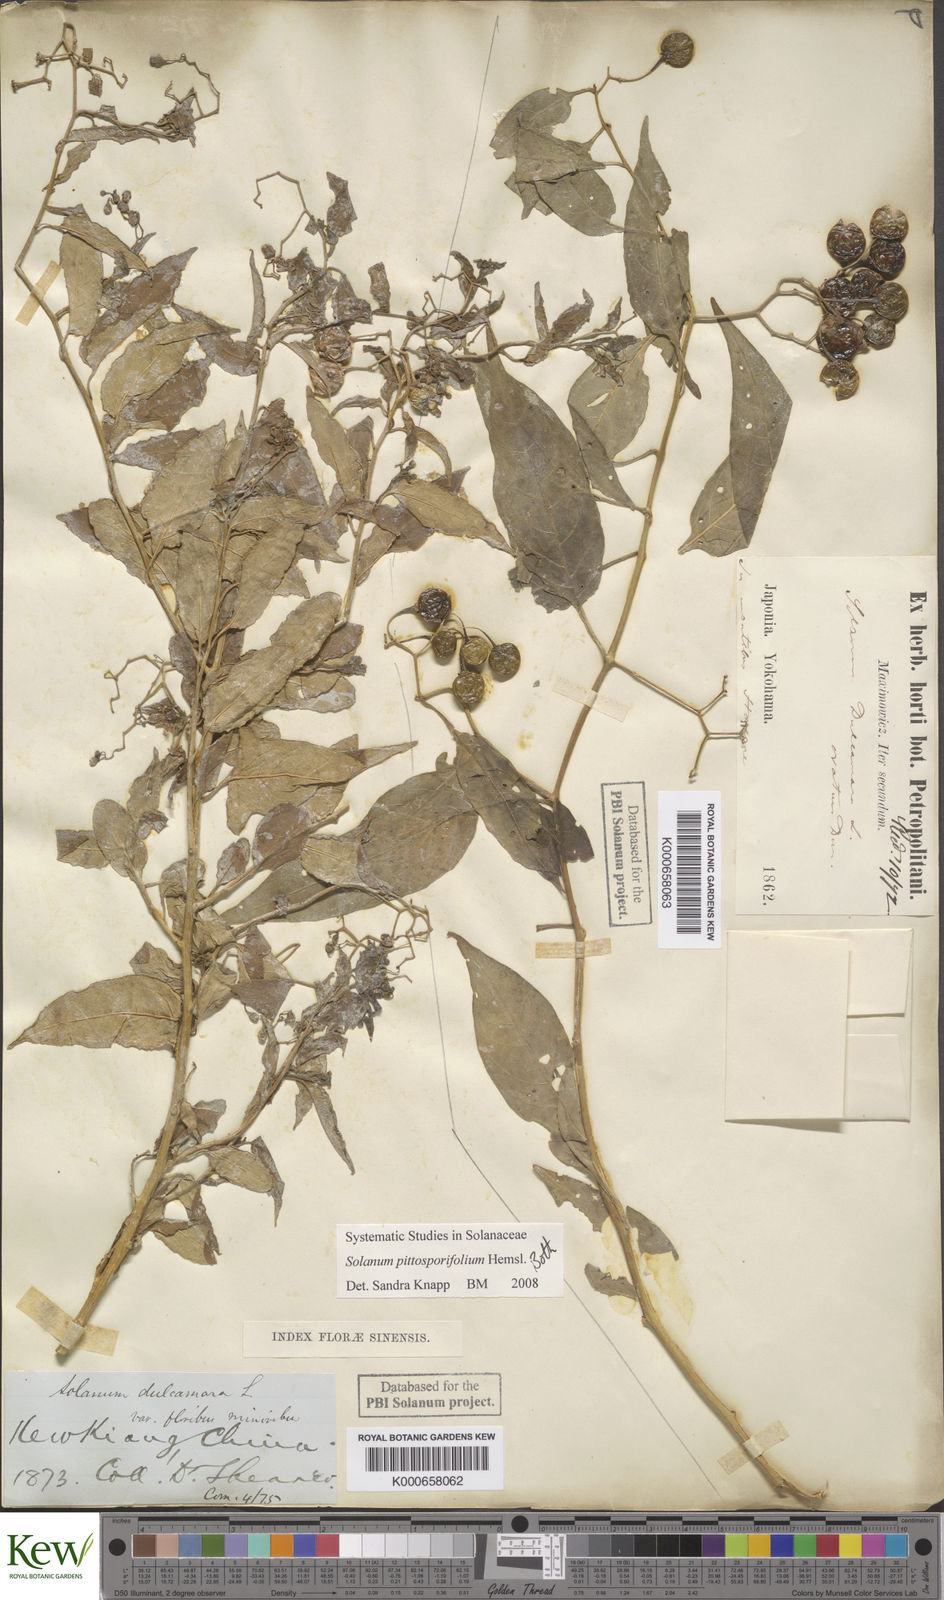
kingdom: Plantae
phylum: Tracheophyta
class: Magnoliopsida
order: Solanales
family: Solanaceae
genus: Solanum
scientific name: Solanum pittosporifolium
